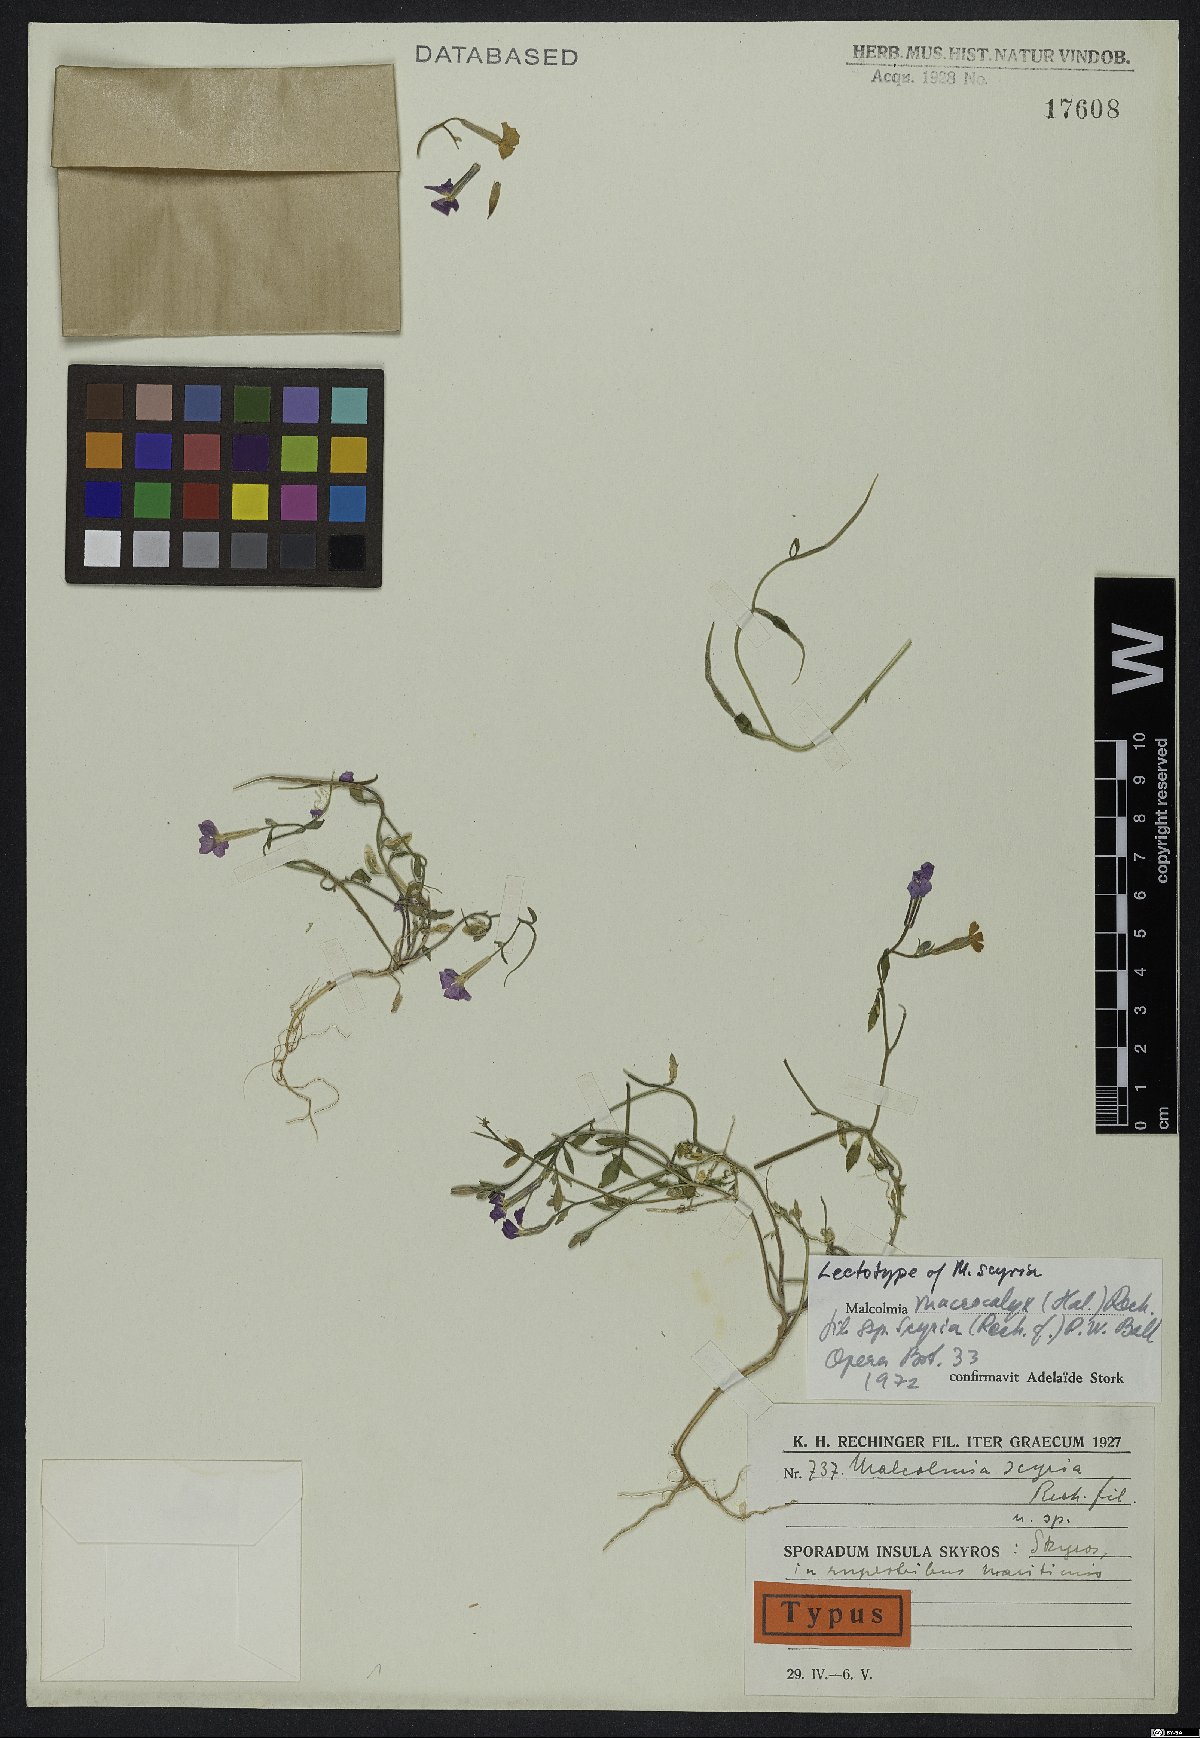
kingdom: Plantae
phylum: Tracheophyta
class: Magnoliopsida
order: Brassicales
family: Brassicaceae
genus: Malcolmia
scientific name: Malcolmia macrocalyx
